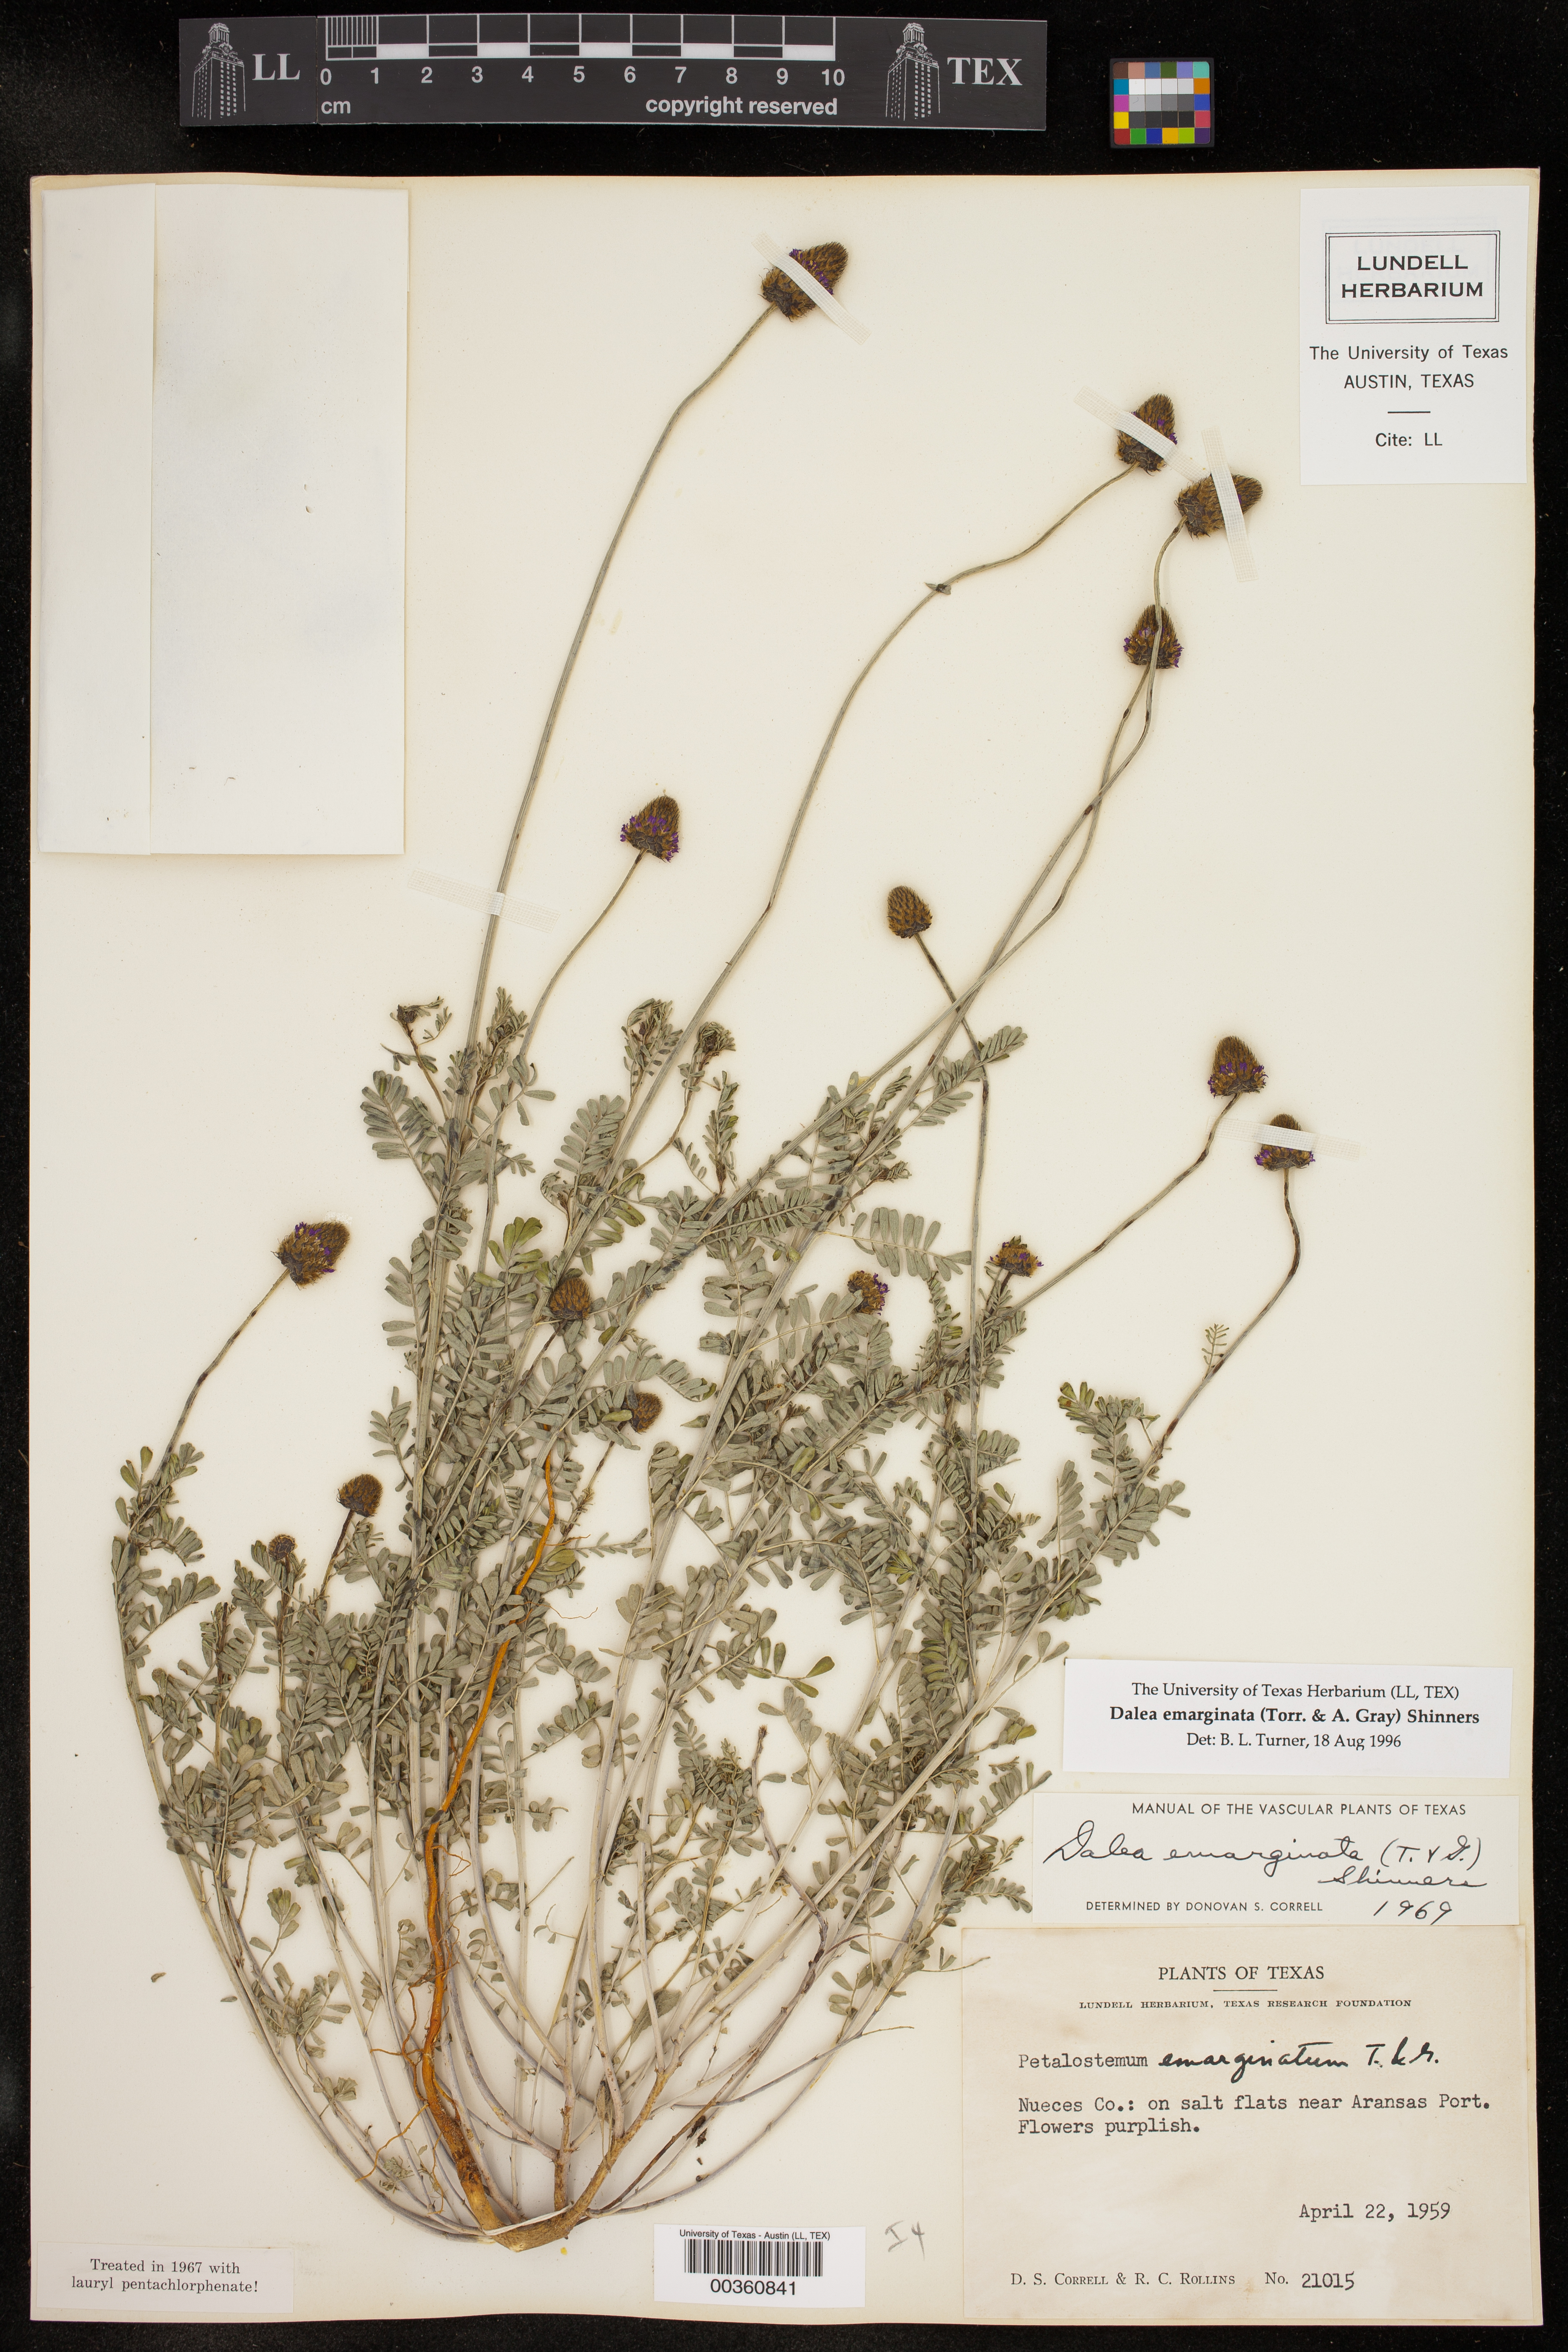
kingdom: Plantae
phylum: Tracheophyta
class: Magnoliopsida
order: Fabales
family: Fabaceae
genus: Dalea
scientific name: Dalea emarginata
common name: Wedgeleaf prairie clover
